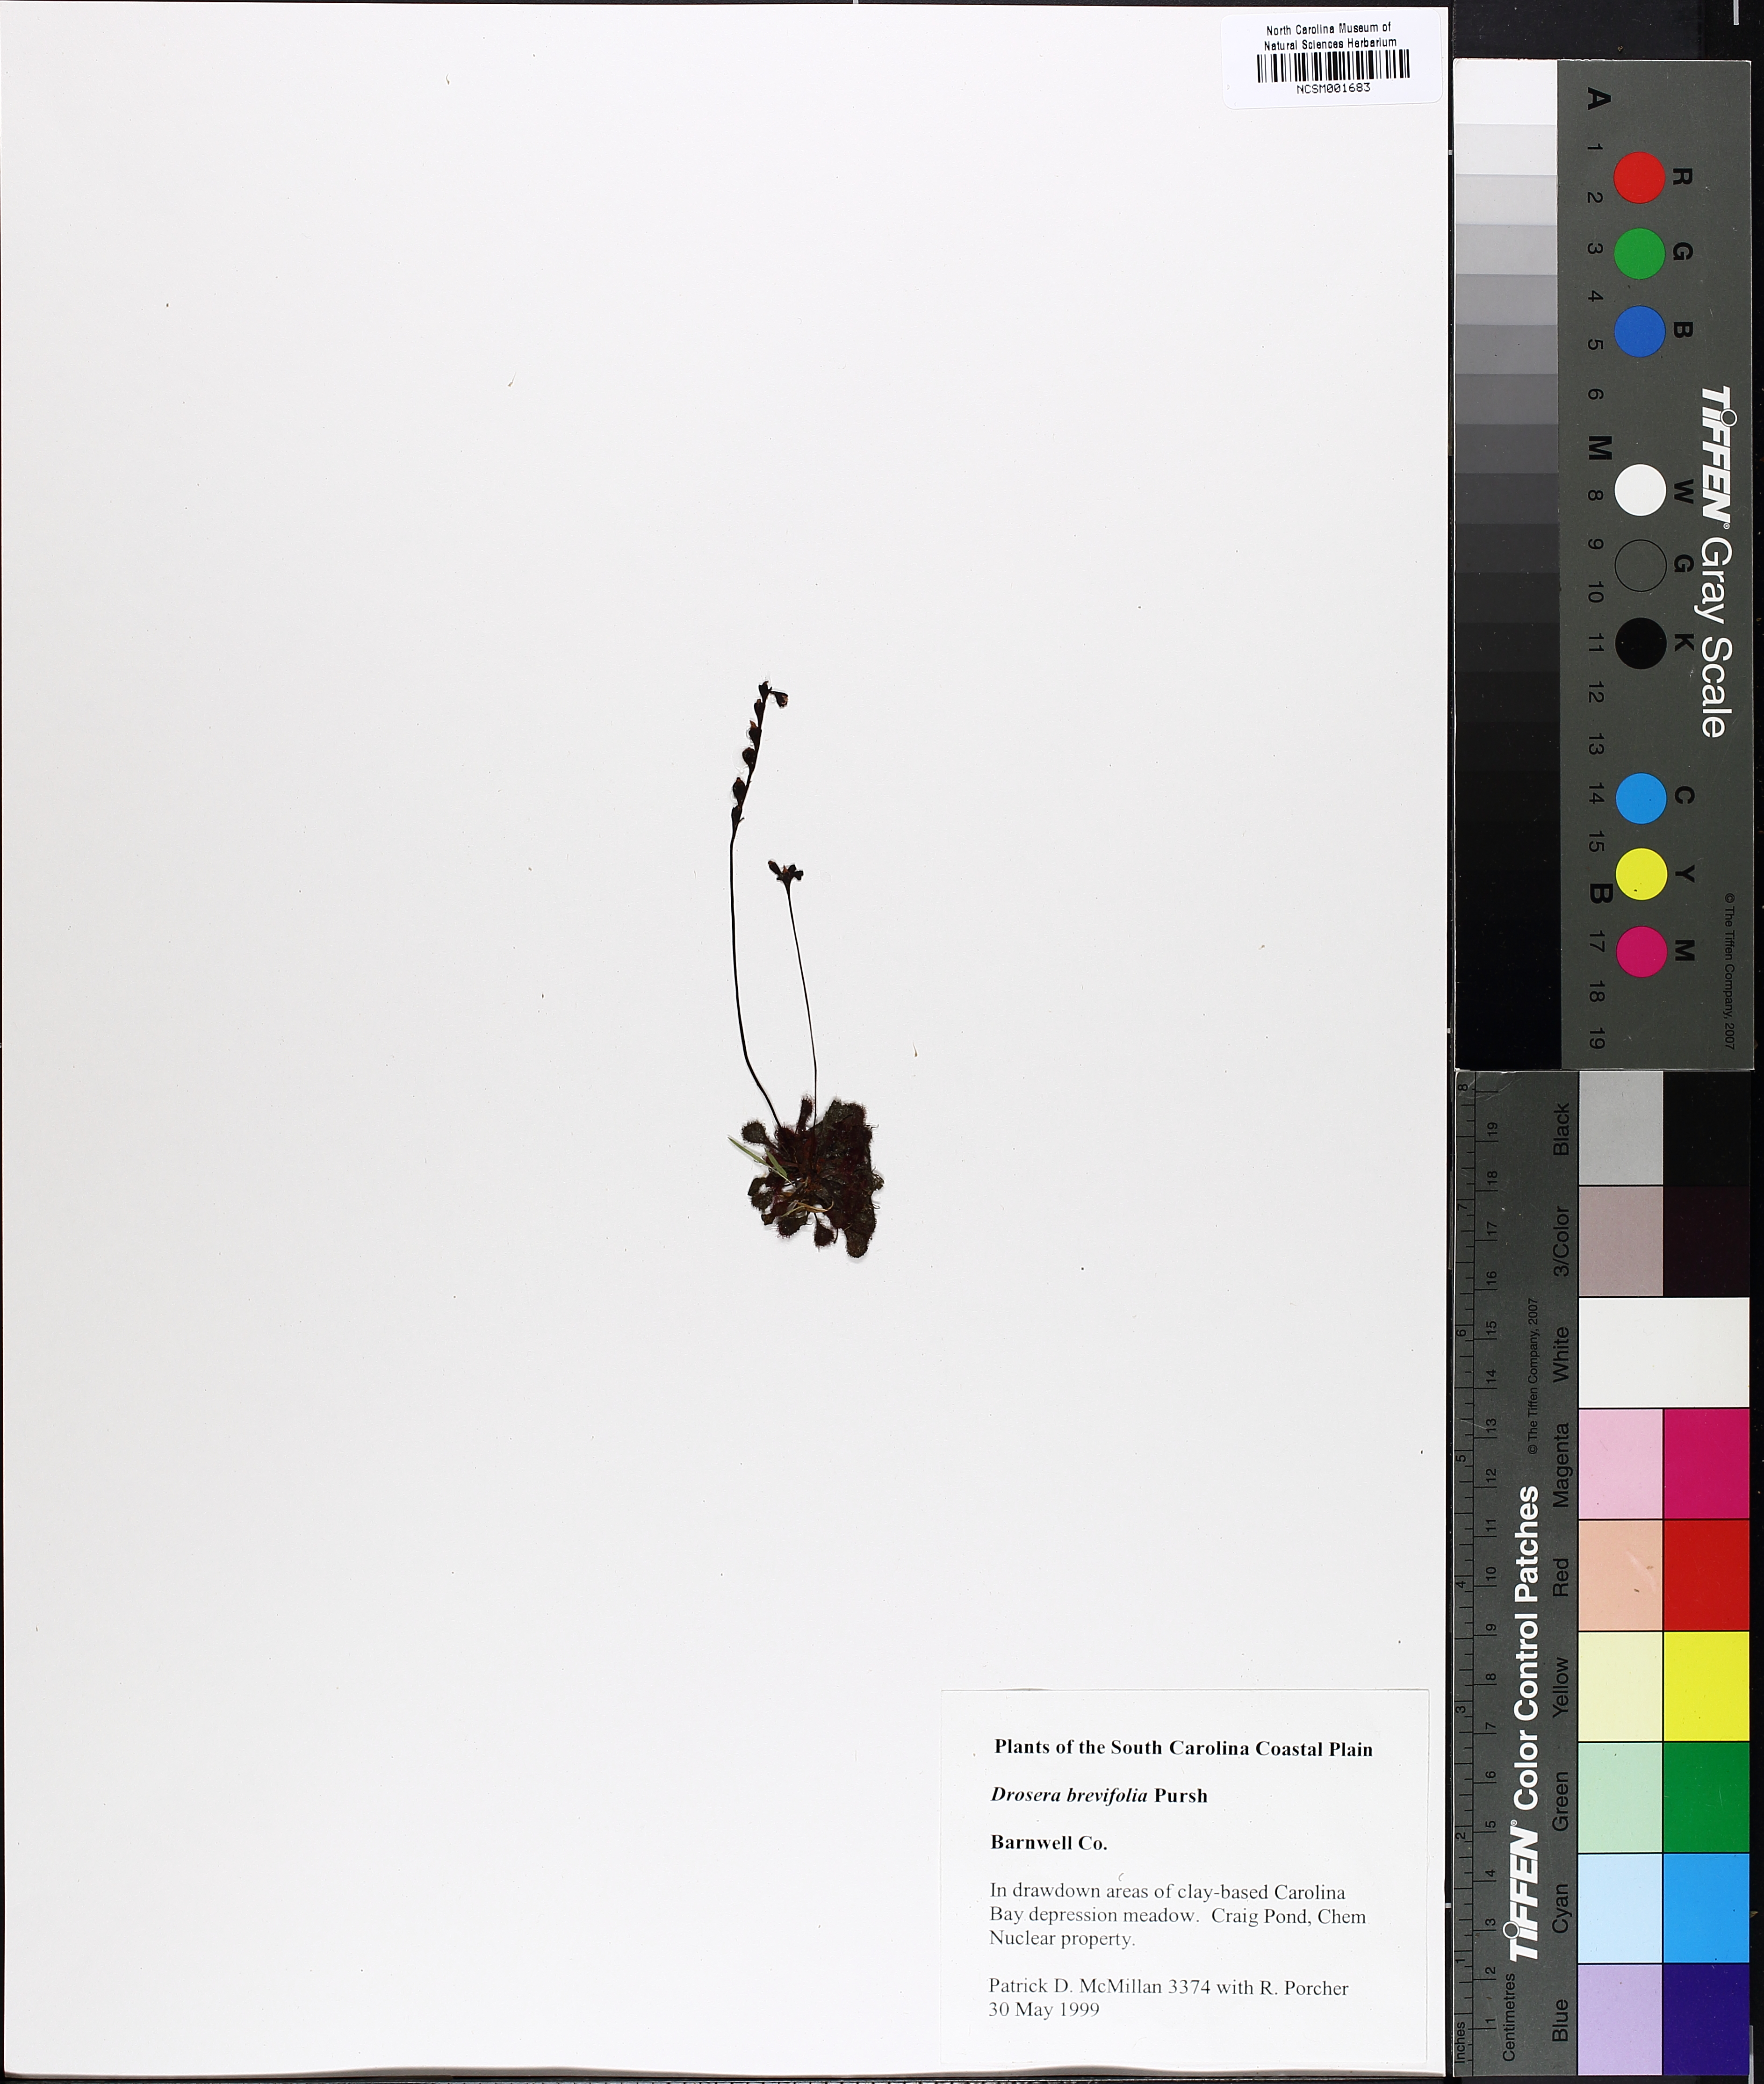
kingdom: Plantae
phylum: Tracheophyta
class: Magnoliopsida
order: Caryophyllales
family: Droseraceae
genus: Drosera
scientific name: Drosera brevifolia
